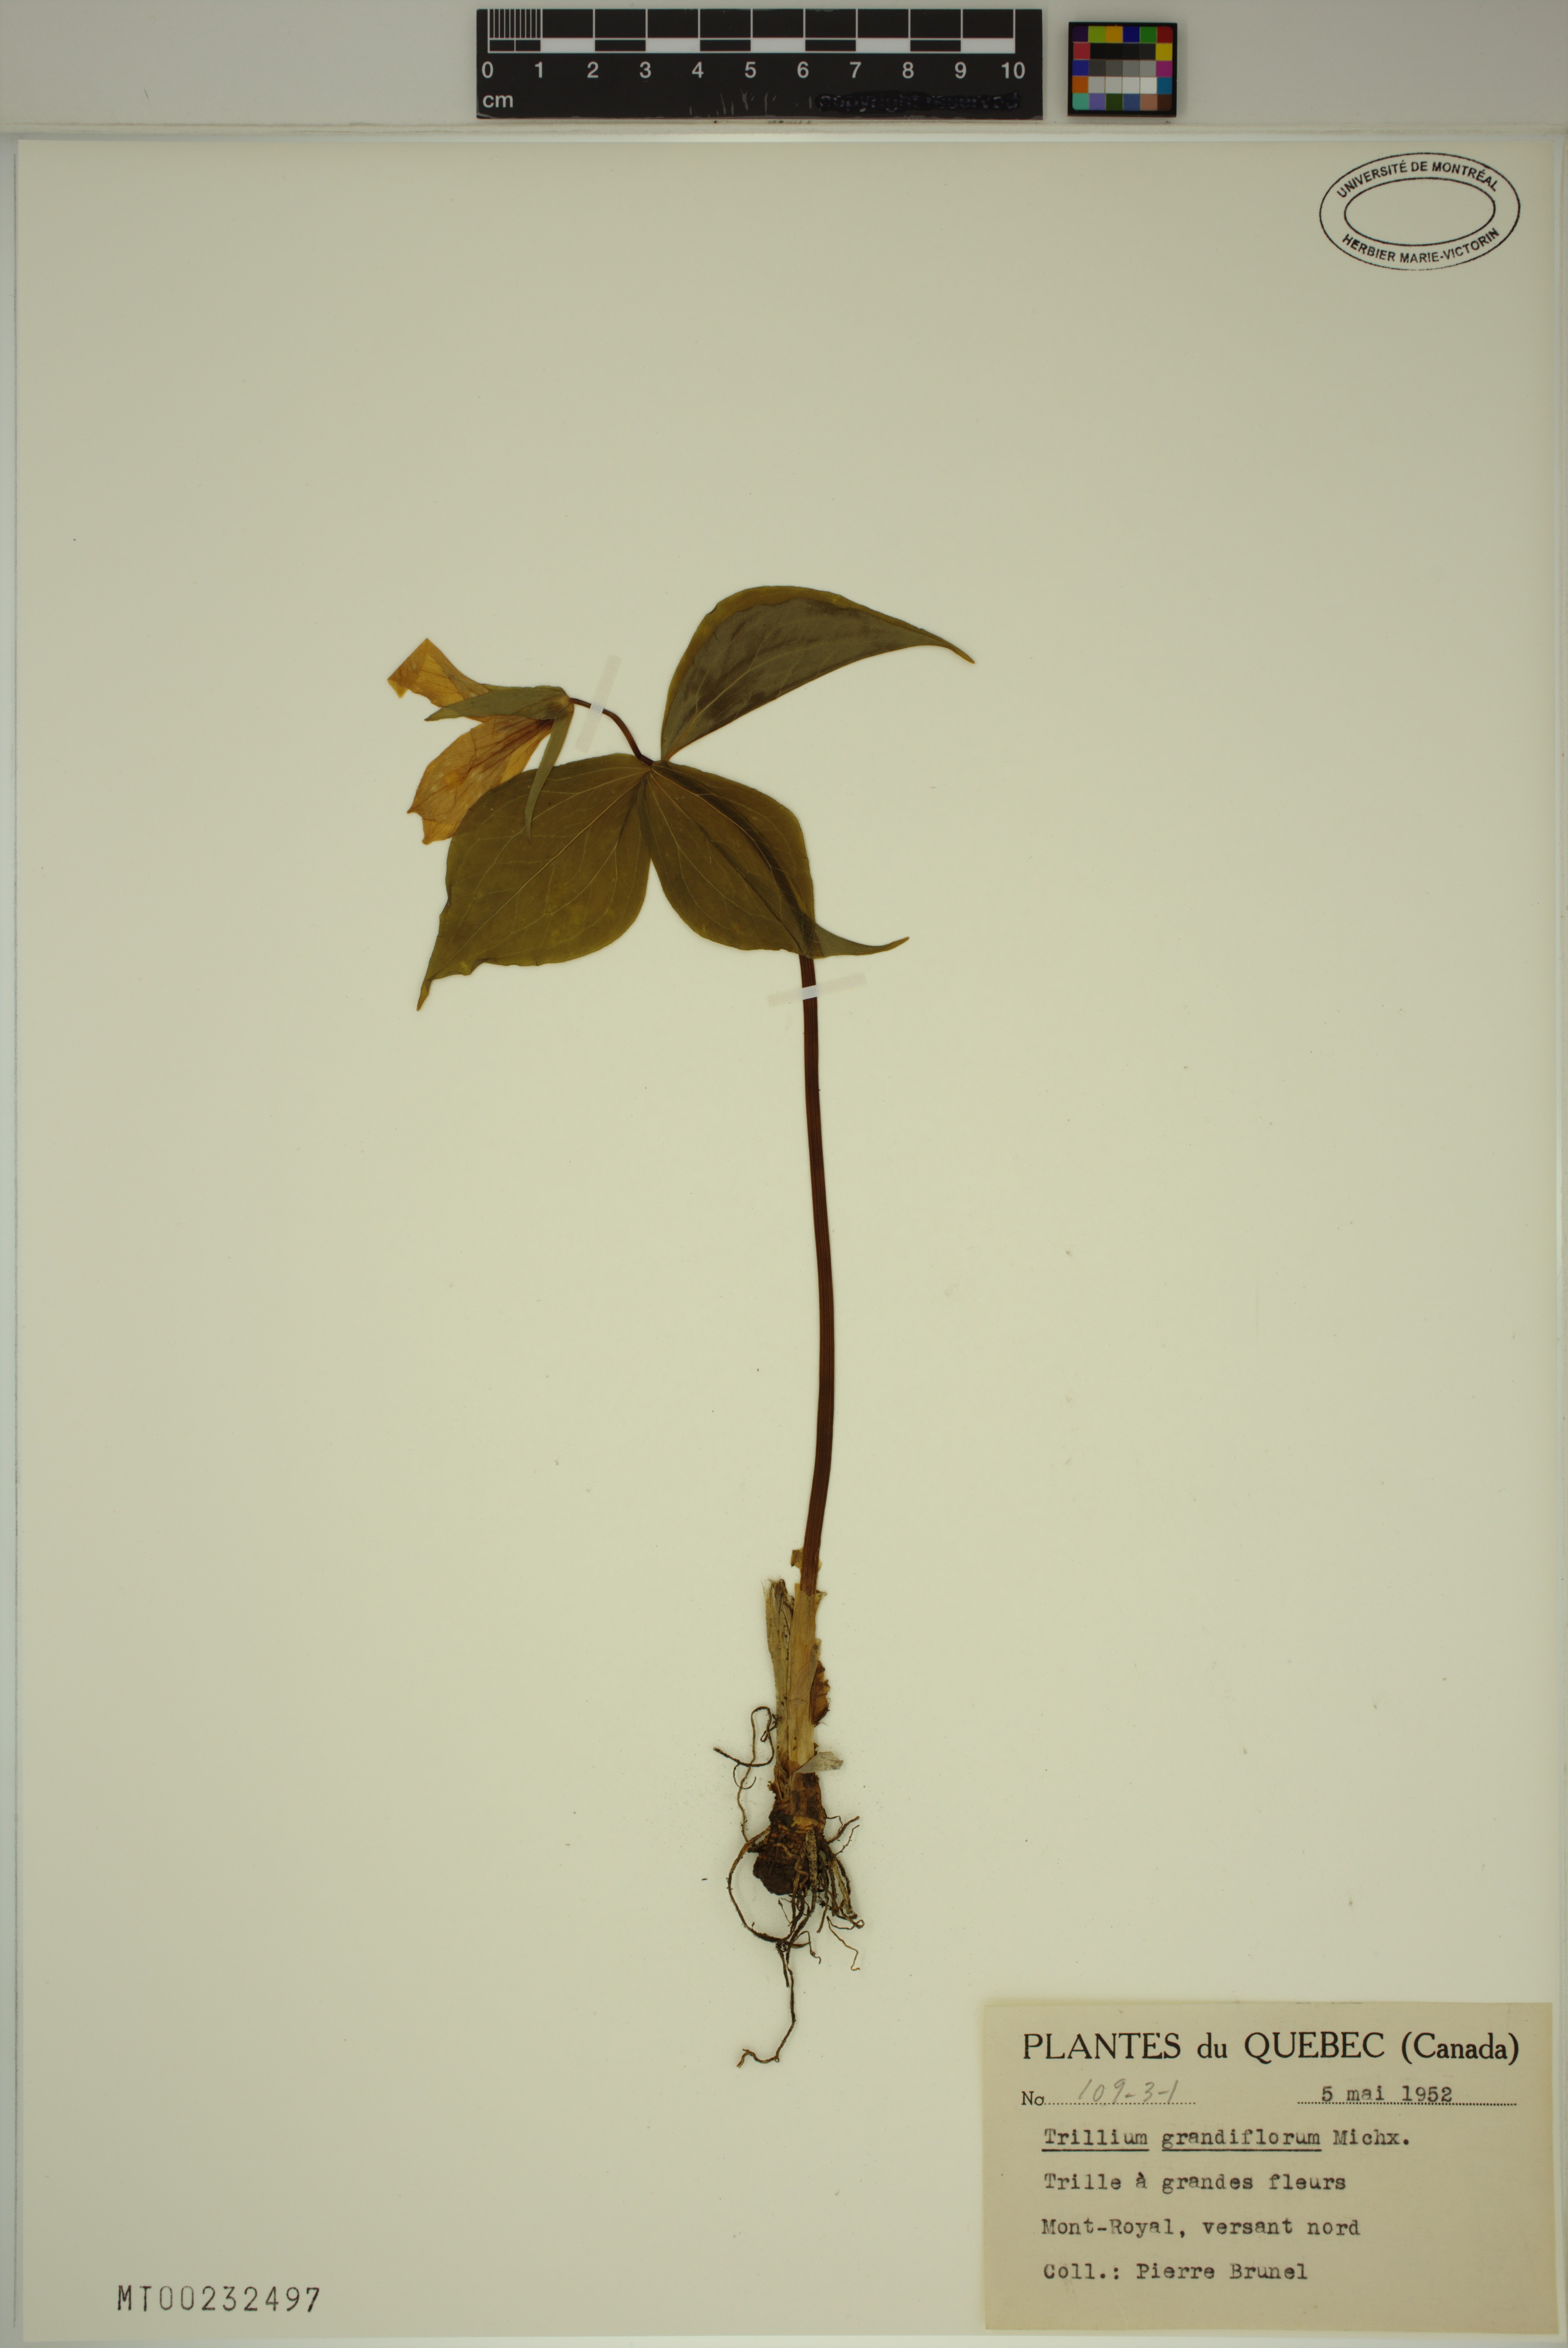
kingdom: Plantae
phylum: Tracheophyta
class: Liliopsida
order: Liliales
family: Melanthiaceae
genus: Trillium
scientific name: Trillium grandiflorum
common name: Great white trillium
